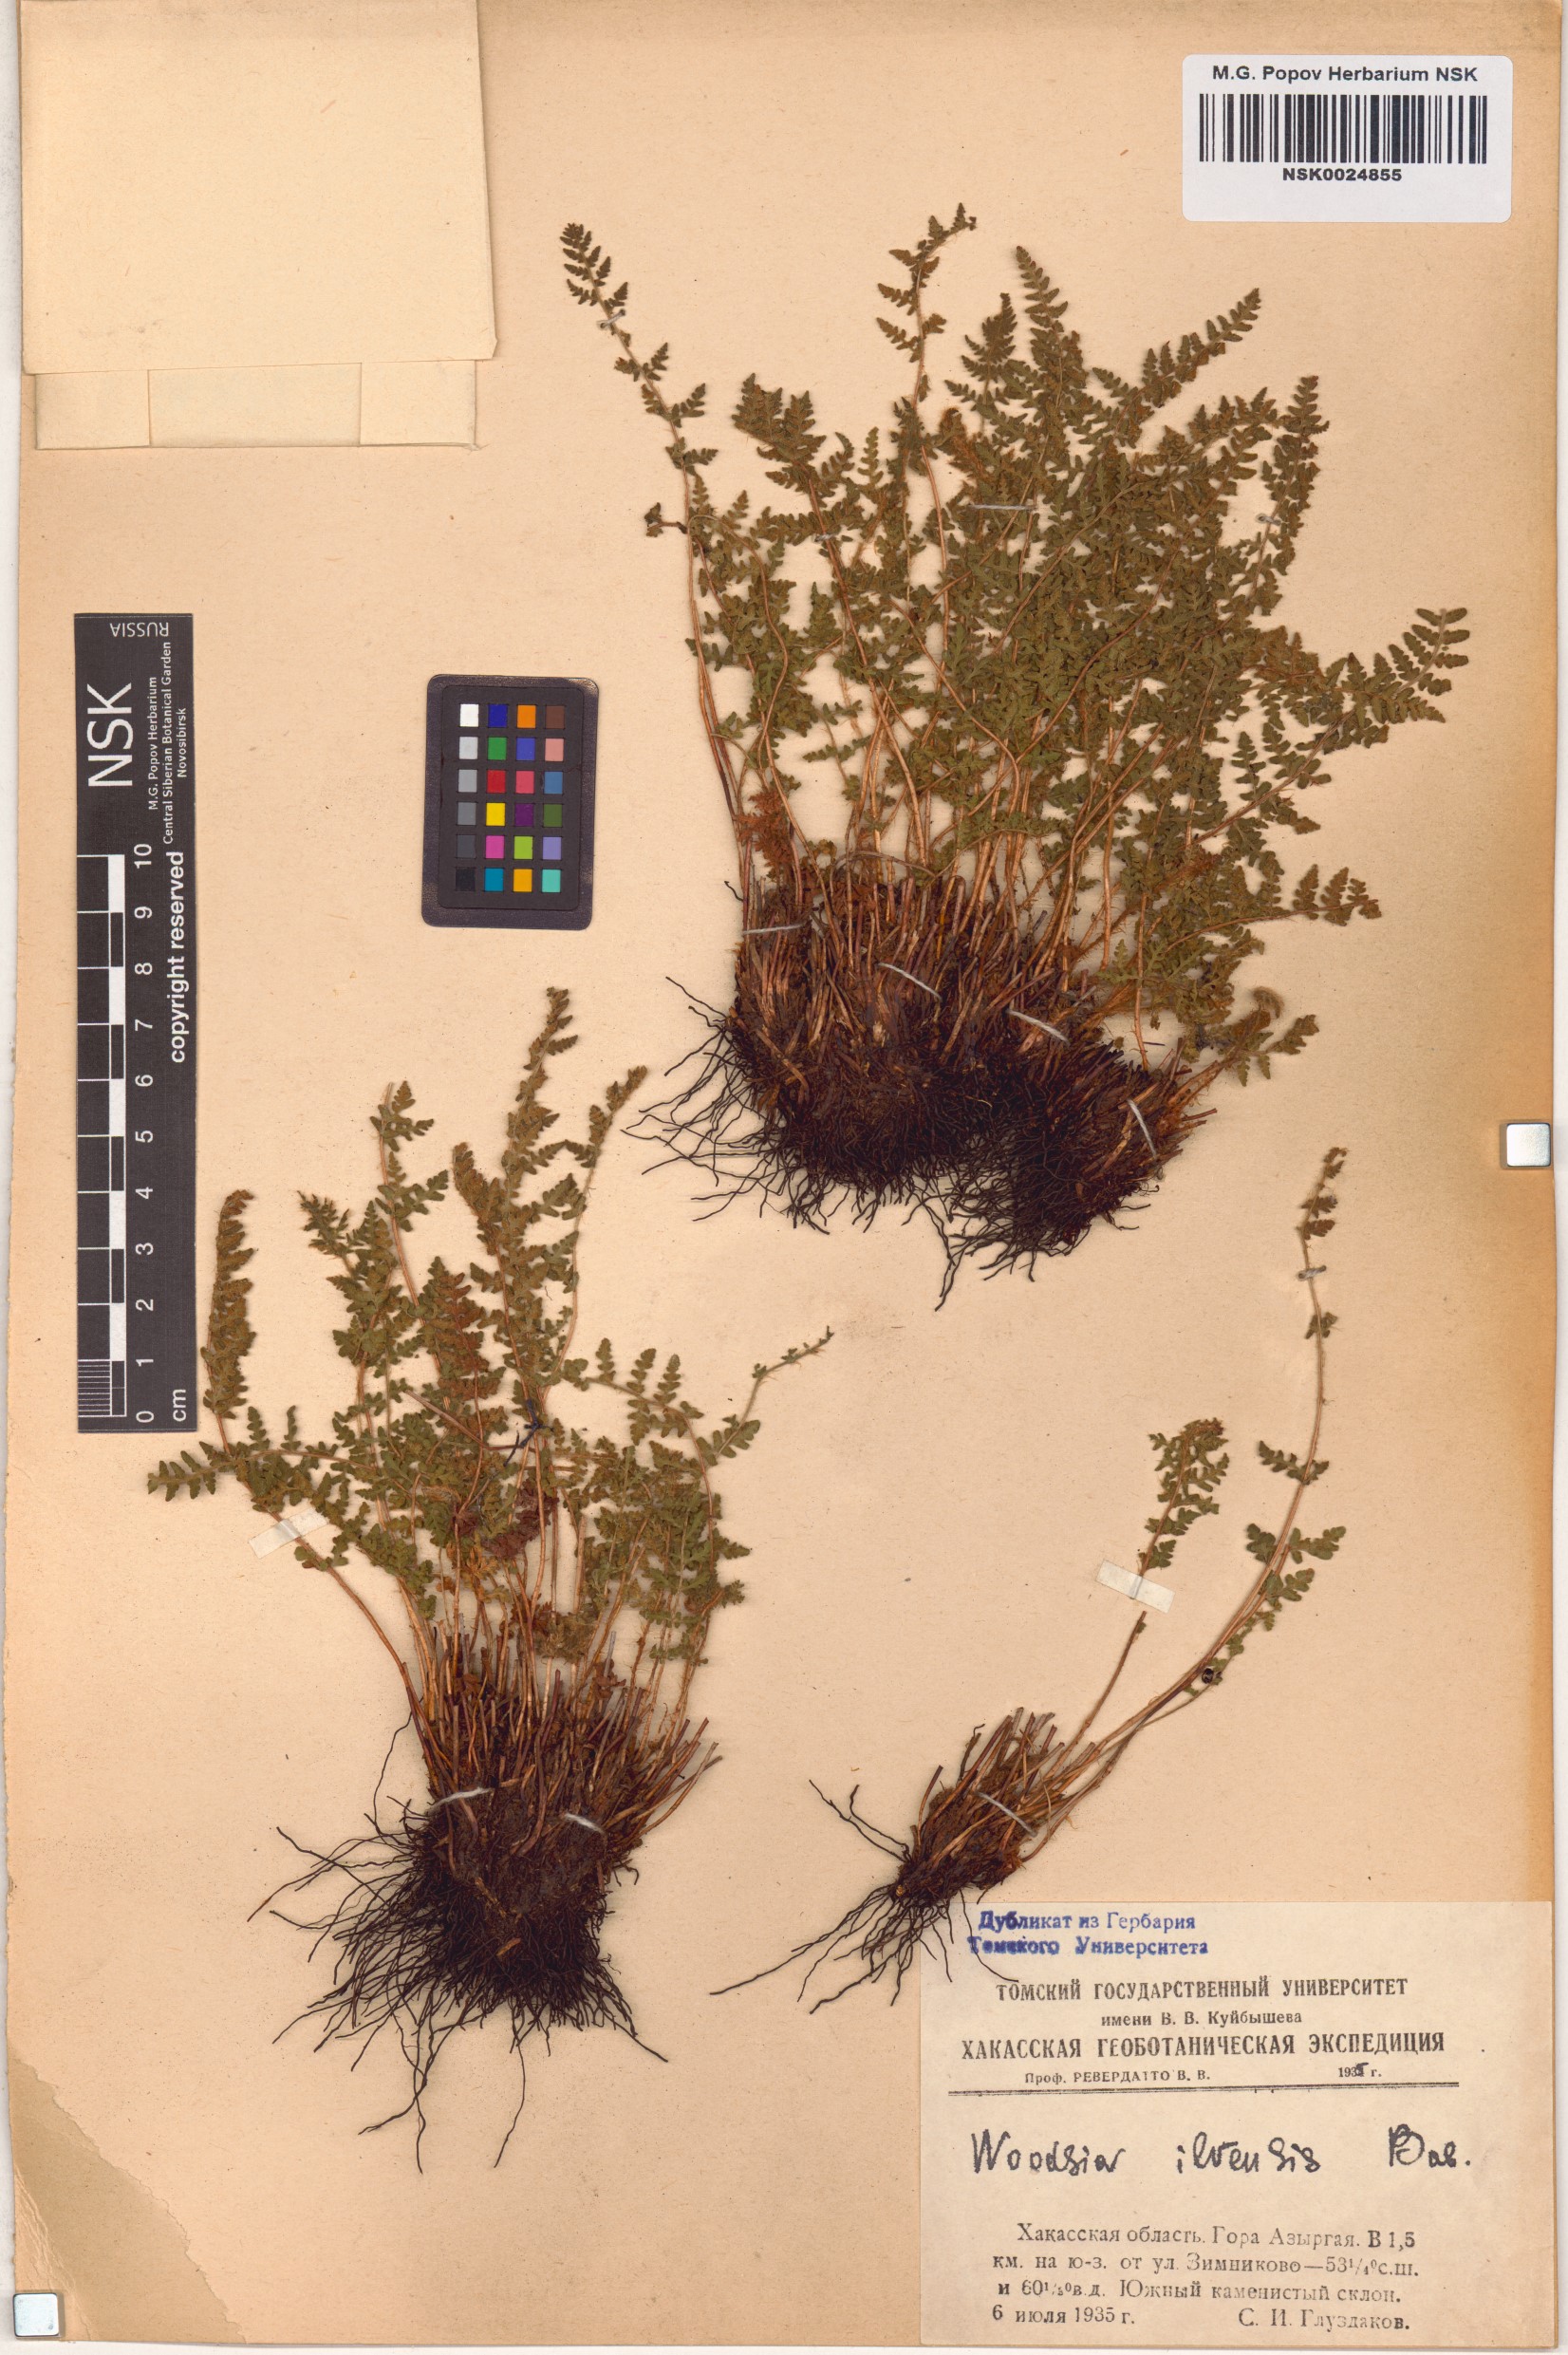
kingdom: Plantae
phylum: Tracheophyta
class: Polypodiopsida
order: Polypodiales
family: Woodsiaceae
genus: Woodsia
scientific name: Woodsia ilvensis
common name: Fragrant woodsia
